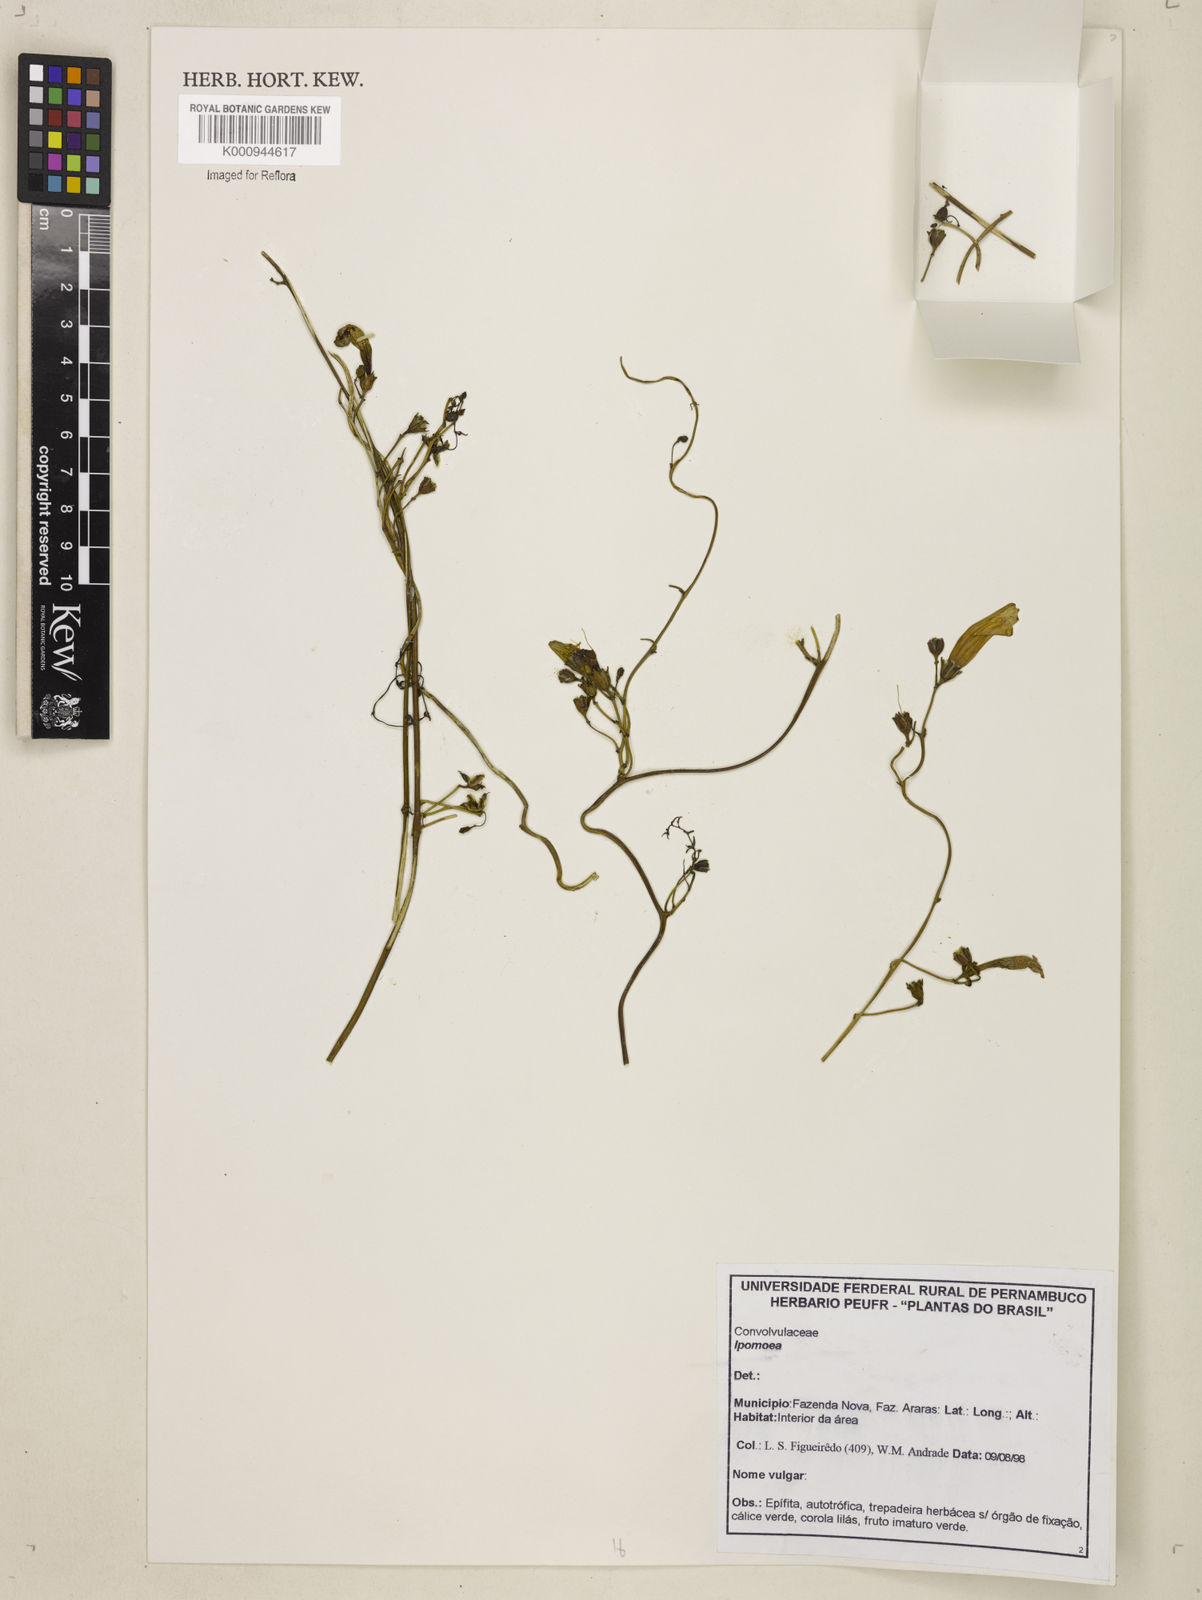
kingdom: Plantae
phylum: Tracheophyta
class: Magnoliopsida
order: Solanales
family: Convolvulaceae
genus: Ipomoea
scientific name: Ipomoea
